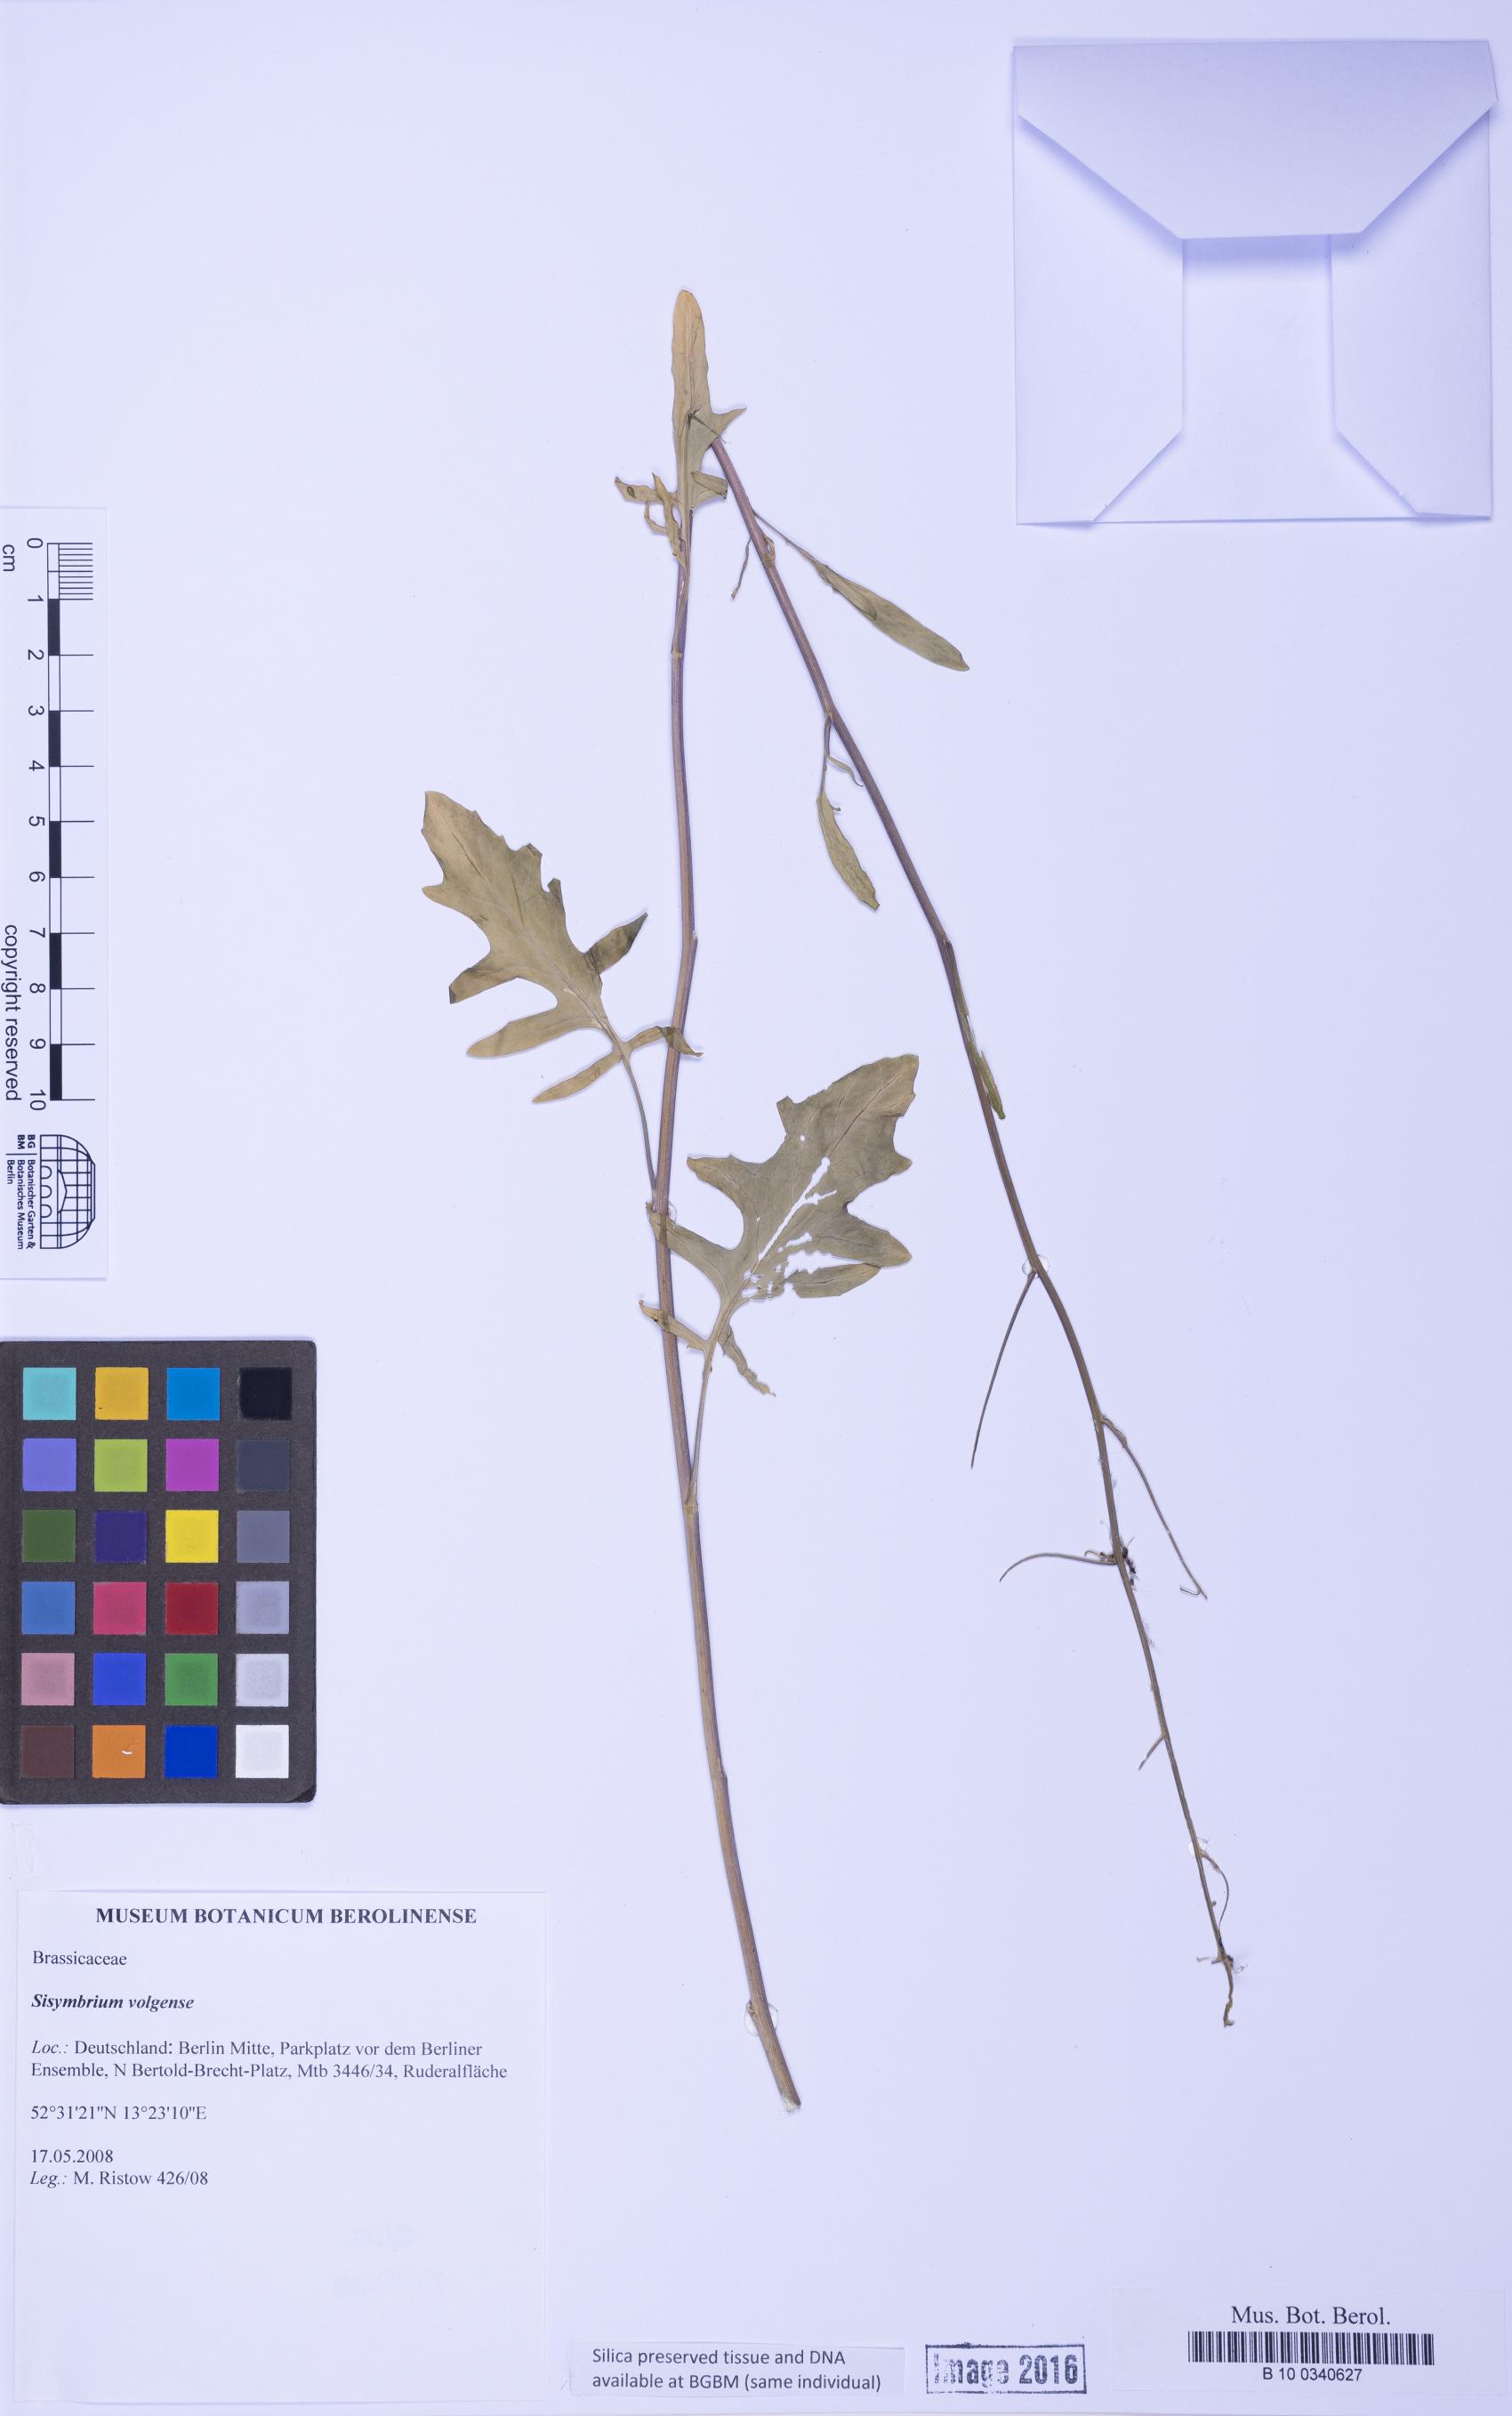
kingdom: Plantae
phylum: Tracheophyta
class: Magnoliopsida
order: Brassicales
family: Brassicaceae
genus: Sisymbrium
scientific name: Sisymbrium volgense
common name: Russian mustard
